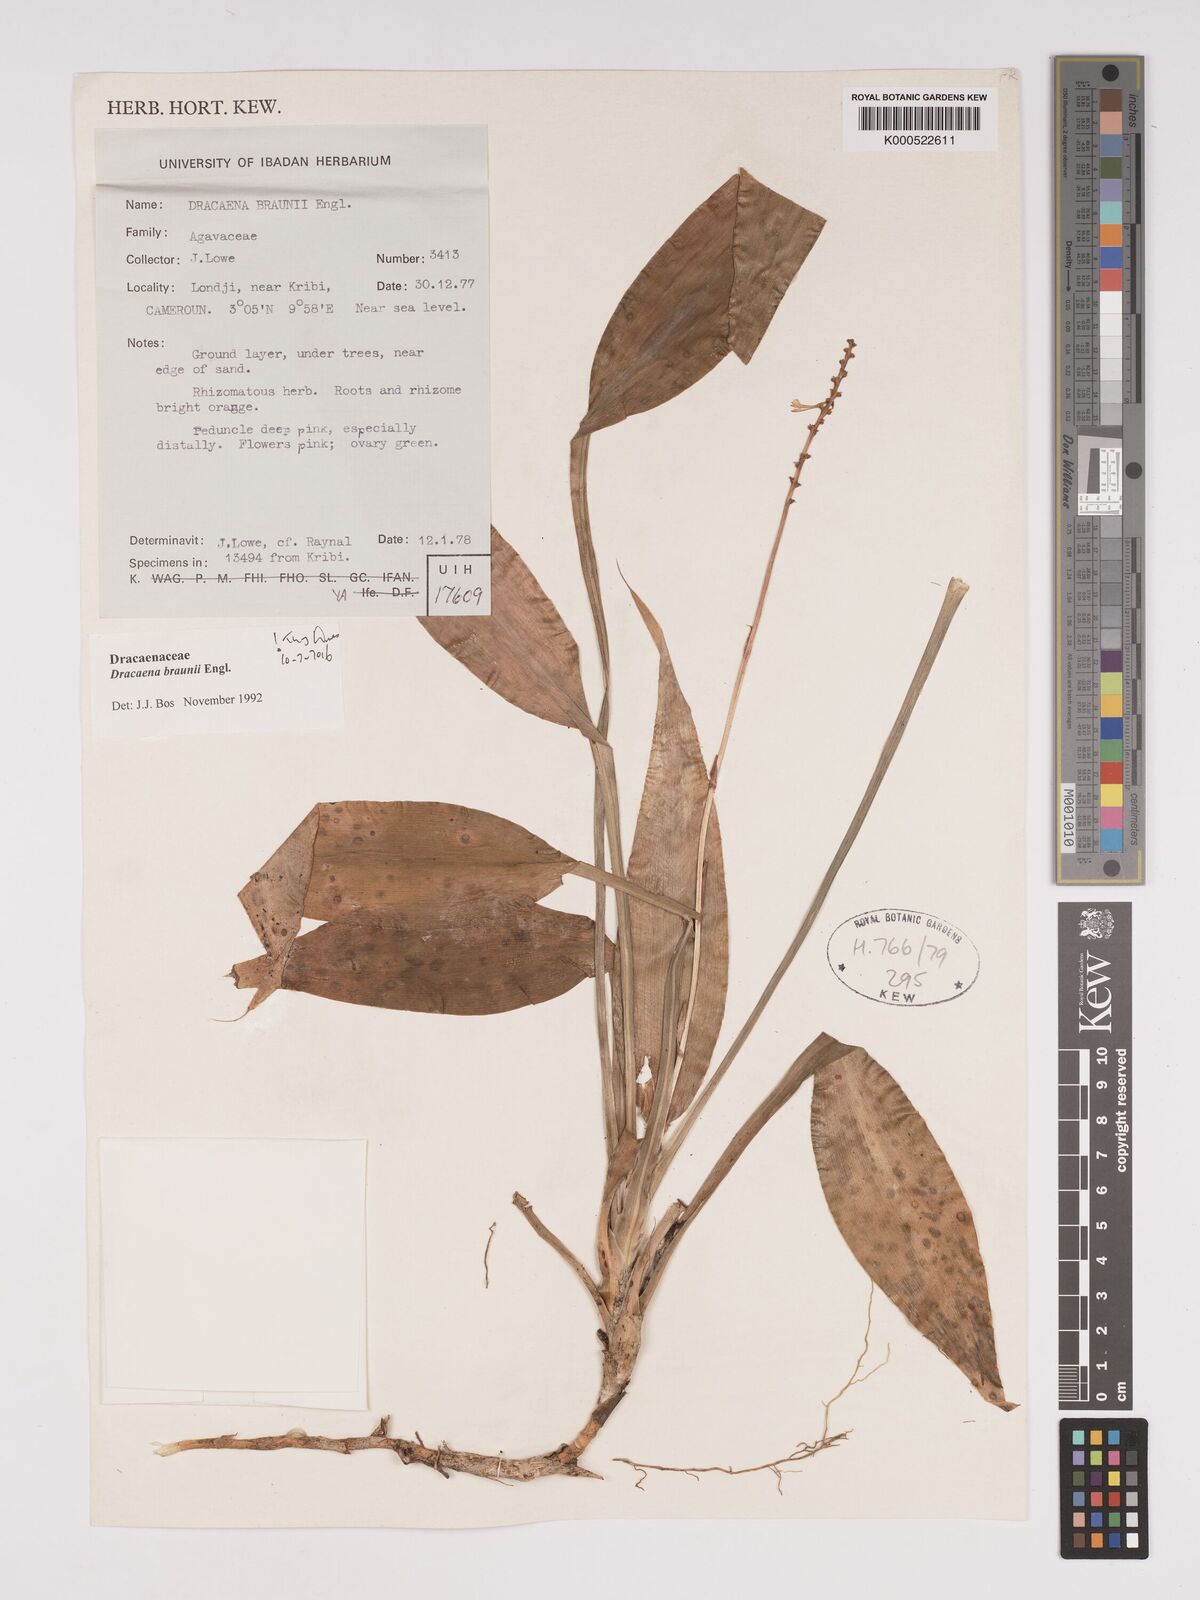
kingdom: Plantae
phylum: Tracheophyta
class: Liliopsida
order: Asparagales
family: Asparagaceae
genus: Dracaena
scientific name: Dracaena braunii
